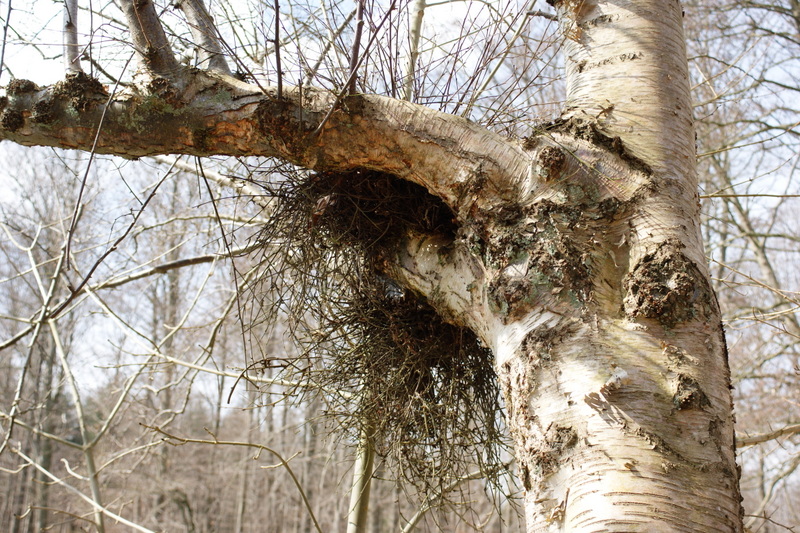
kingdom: Fungi
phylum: Ascomycota
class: Taphrinomycetes
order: Taphrinales
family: Taphrinaceae
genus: Taphrina
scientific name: Taphrina betulina
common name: hekse-sækdug
